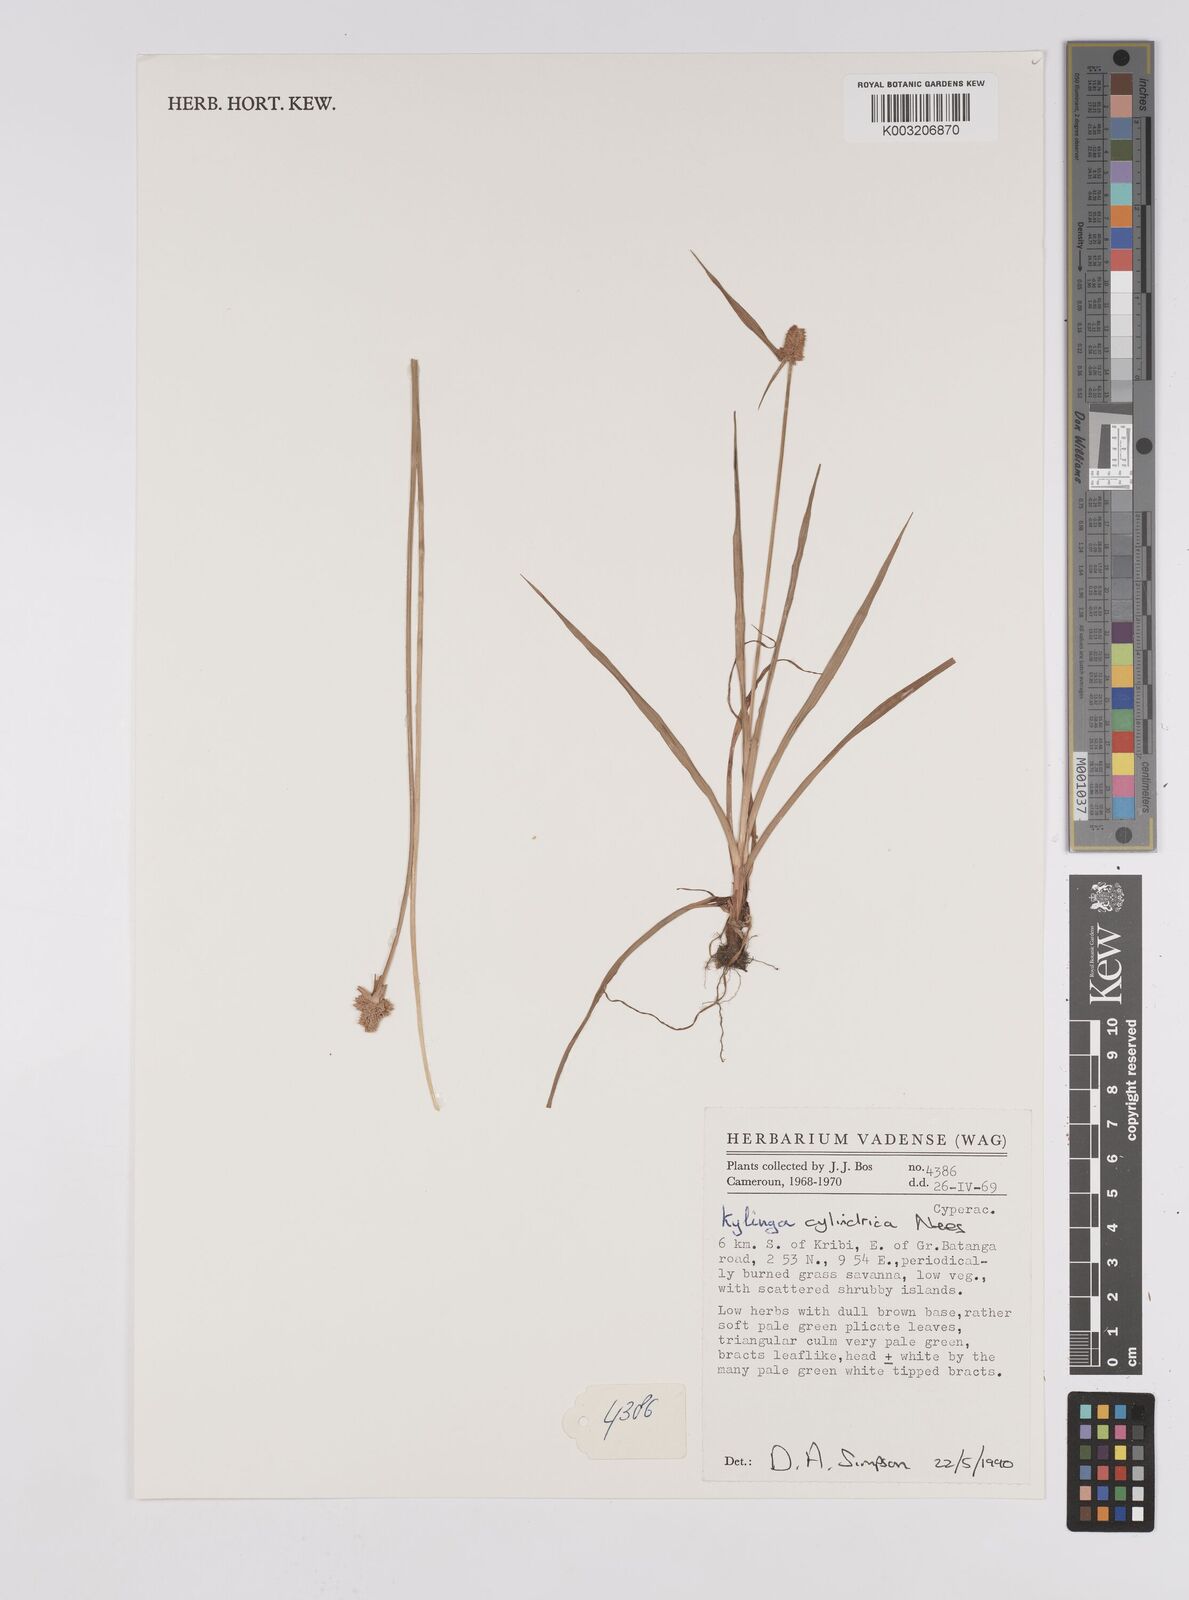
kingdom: Plantae
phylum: Tracheophyta
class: Liliopsida
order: Poales
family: Cyperaceae
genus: Cyperus
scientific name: Cyperus odoratus
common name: Fragrant flatsedge
